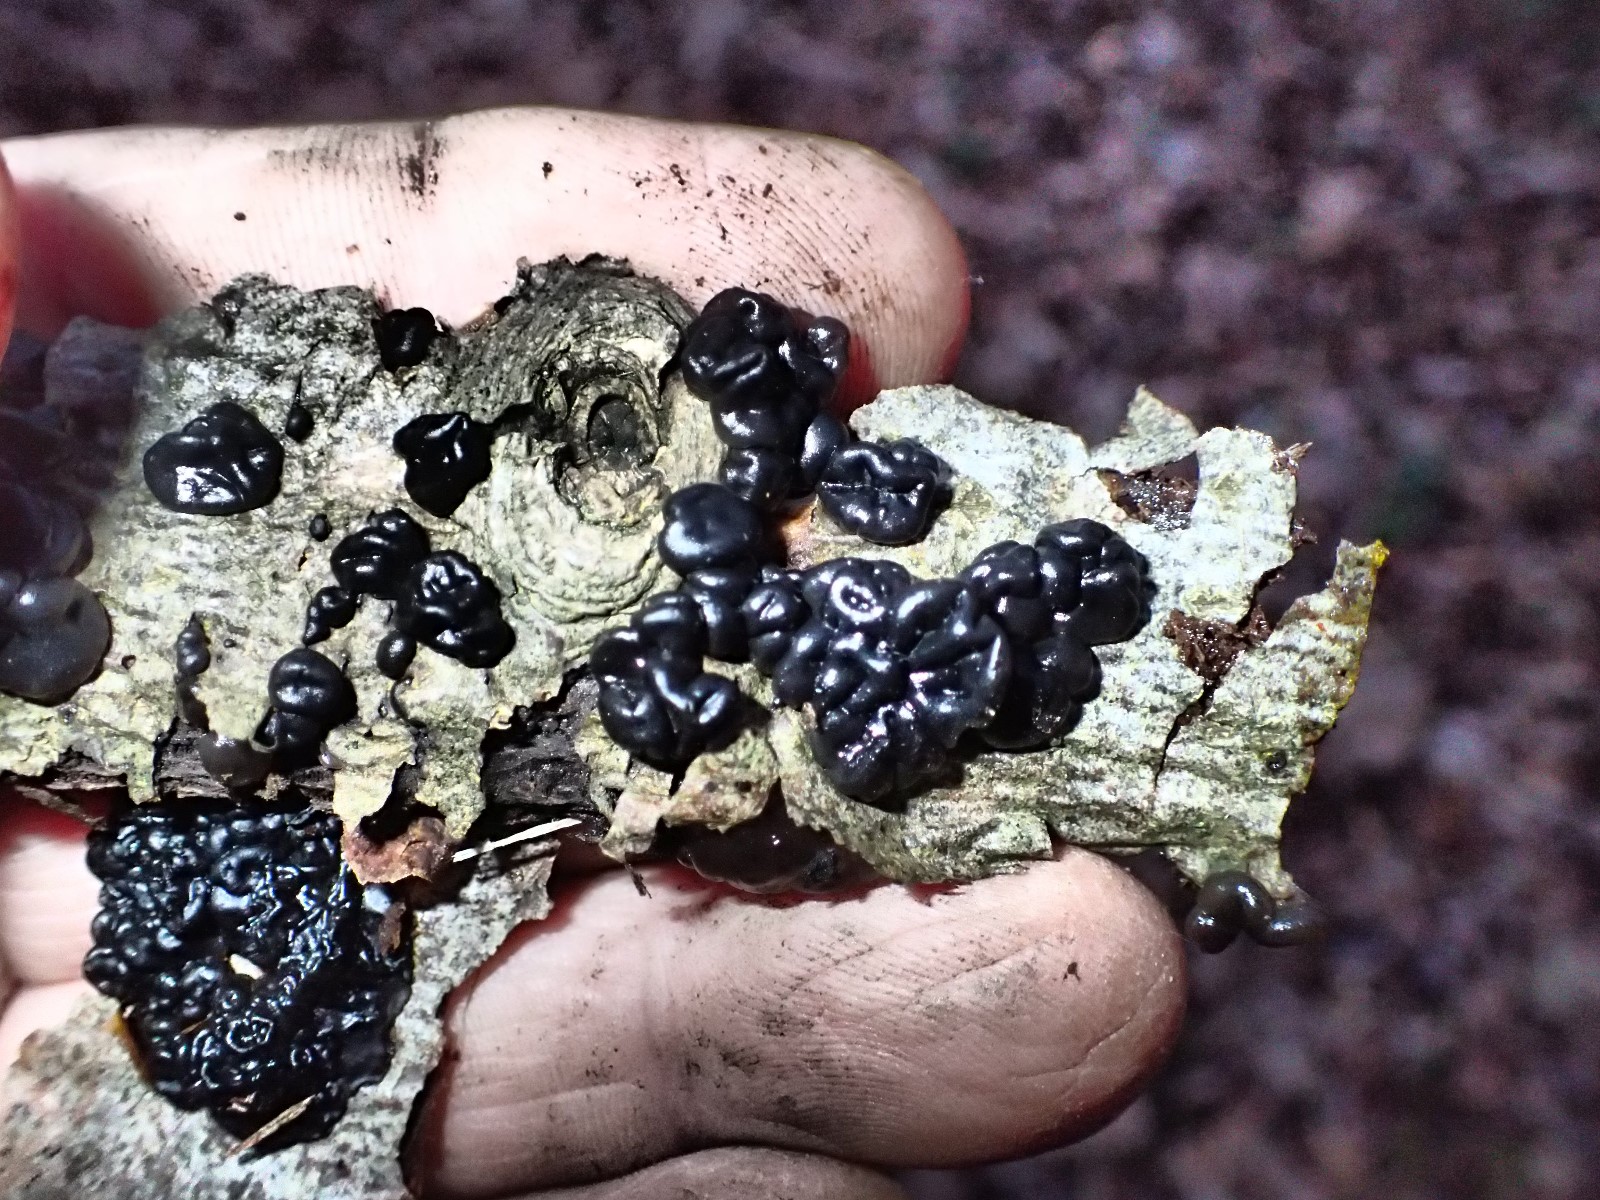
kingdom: Fungi
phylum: Basidiomycota
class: Agaricomycetes
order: Auriculariales
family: Auriculariaceae
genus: Exidia
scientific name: Exidia nigricans
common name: almindelig bævretop
